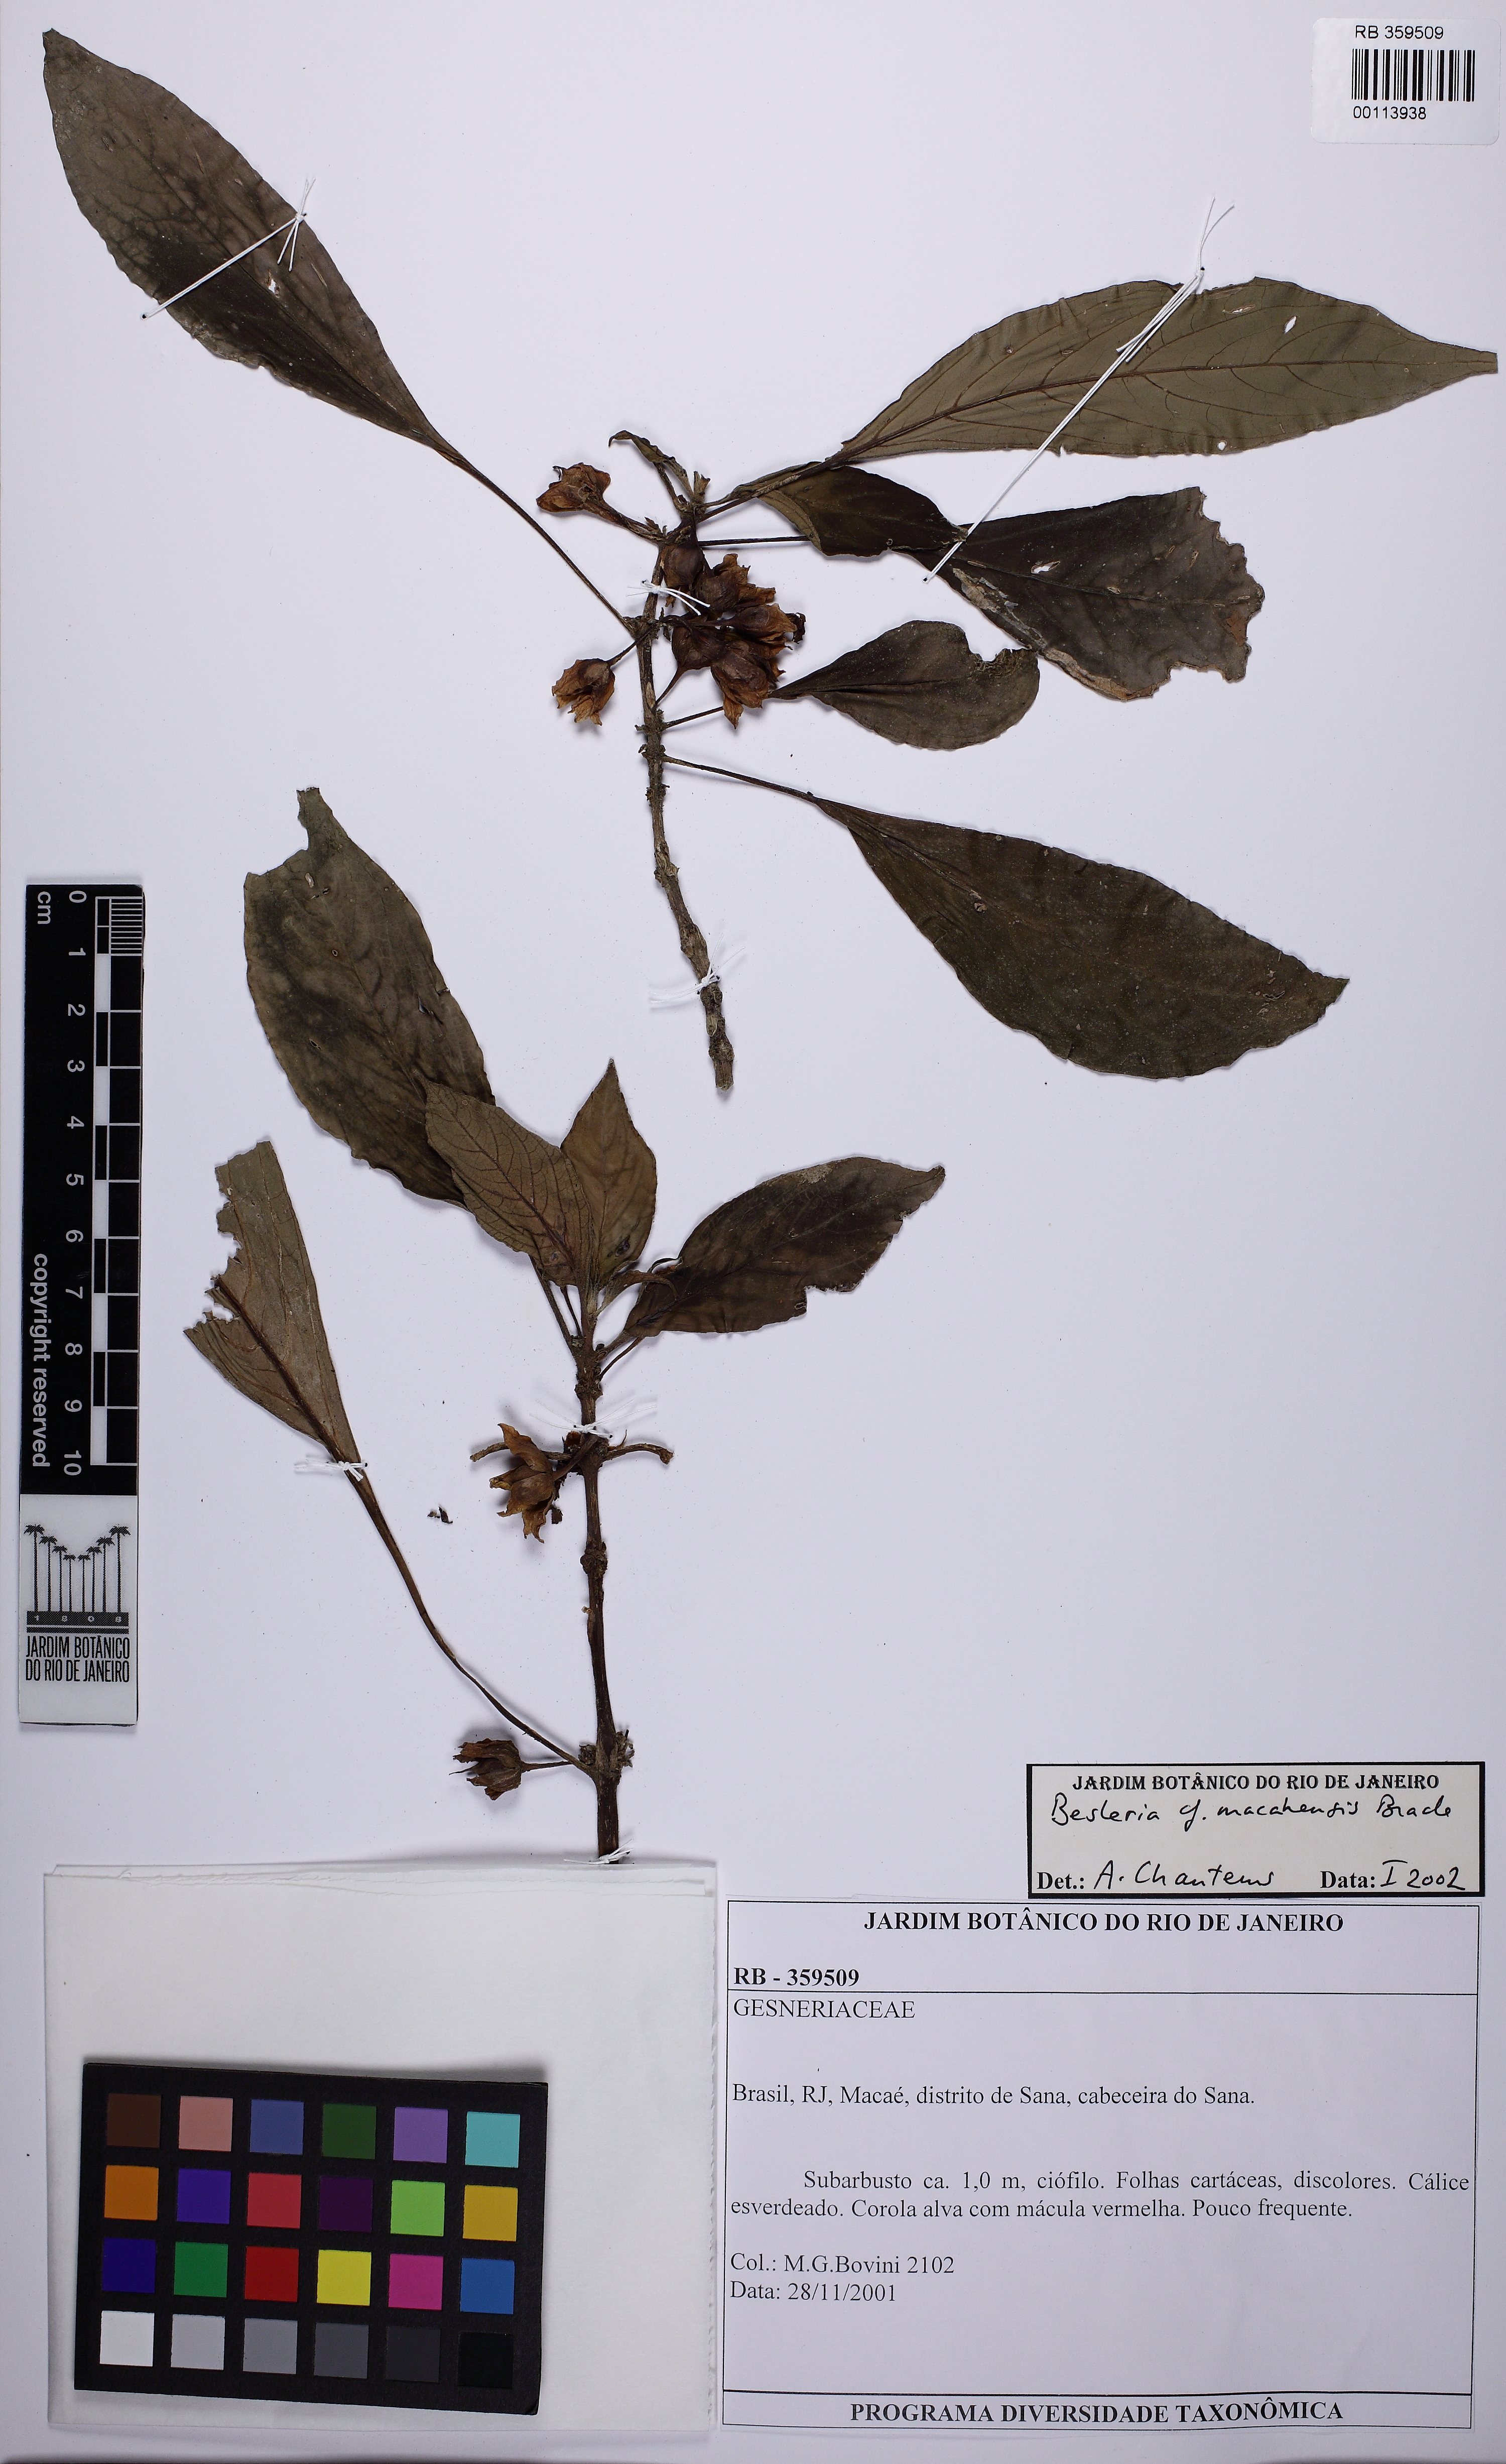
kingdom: Plantae
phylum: Tracheophyta
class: Magnoliopsida
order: Lamiales
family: Gesneriaceae
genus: Besleria
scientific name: Besleria macahensis
